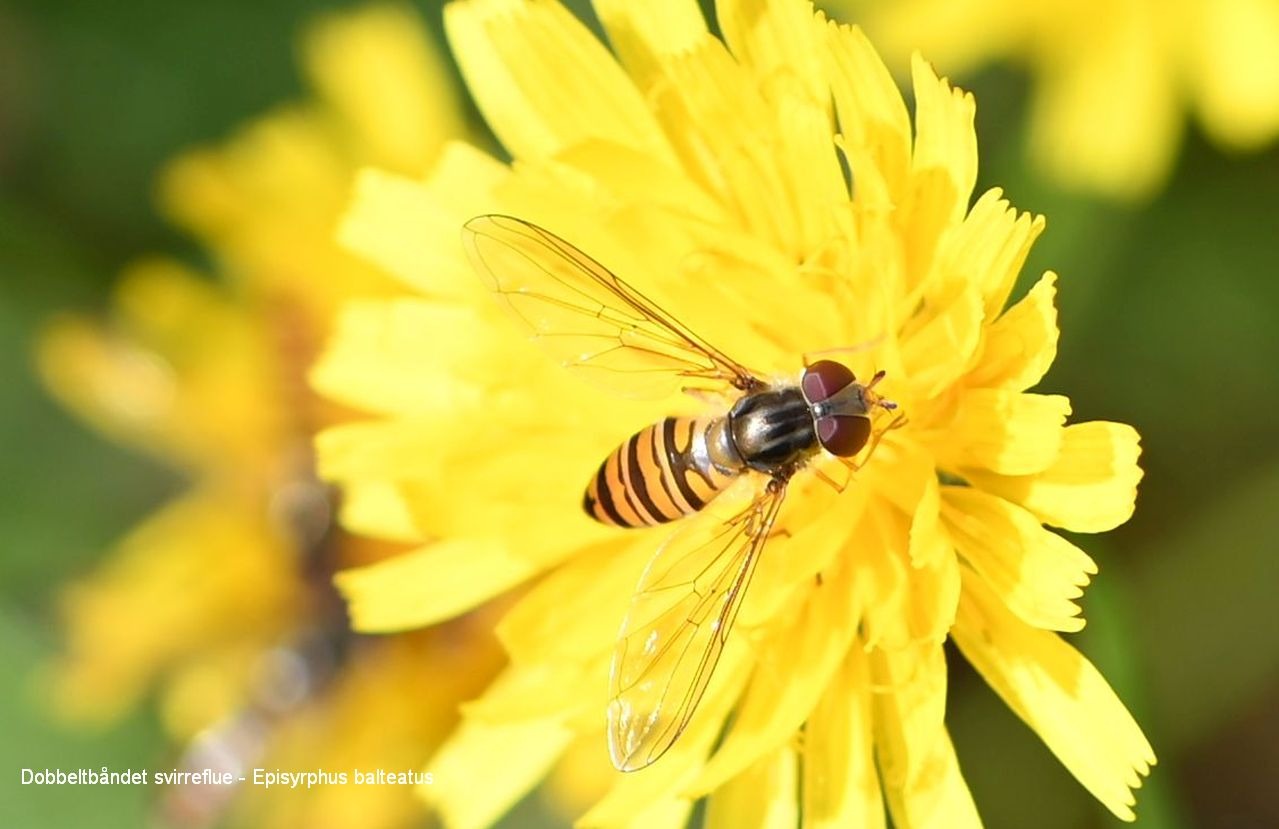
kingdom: Animalia
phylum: Arthropoda
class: Insecta
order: Diptera
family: Syrphidae
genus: Episyrphus
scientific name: Episyrphus balteatus
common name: Dobbeltbåndet svirreflue
